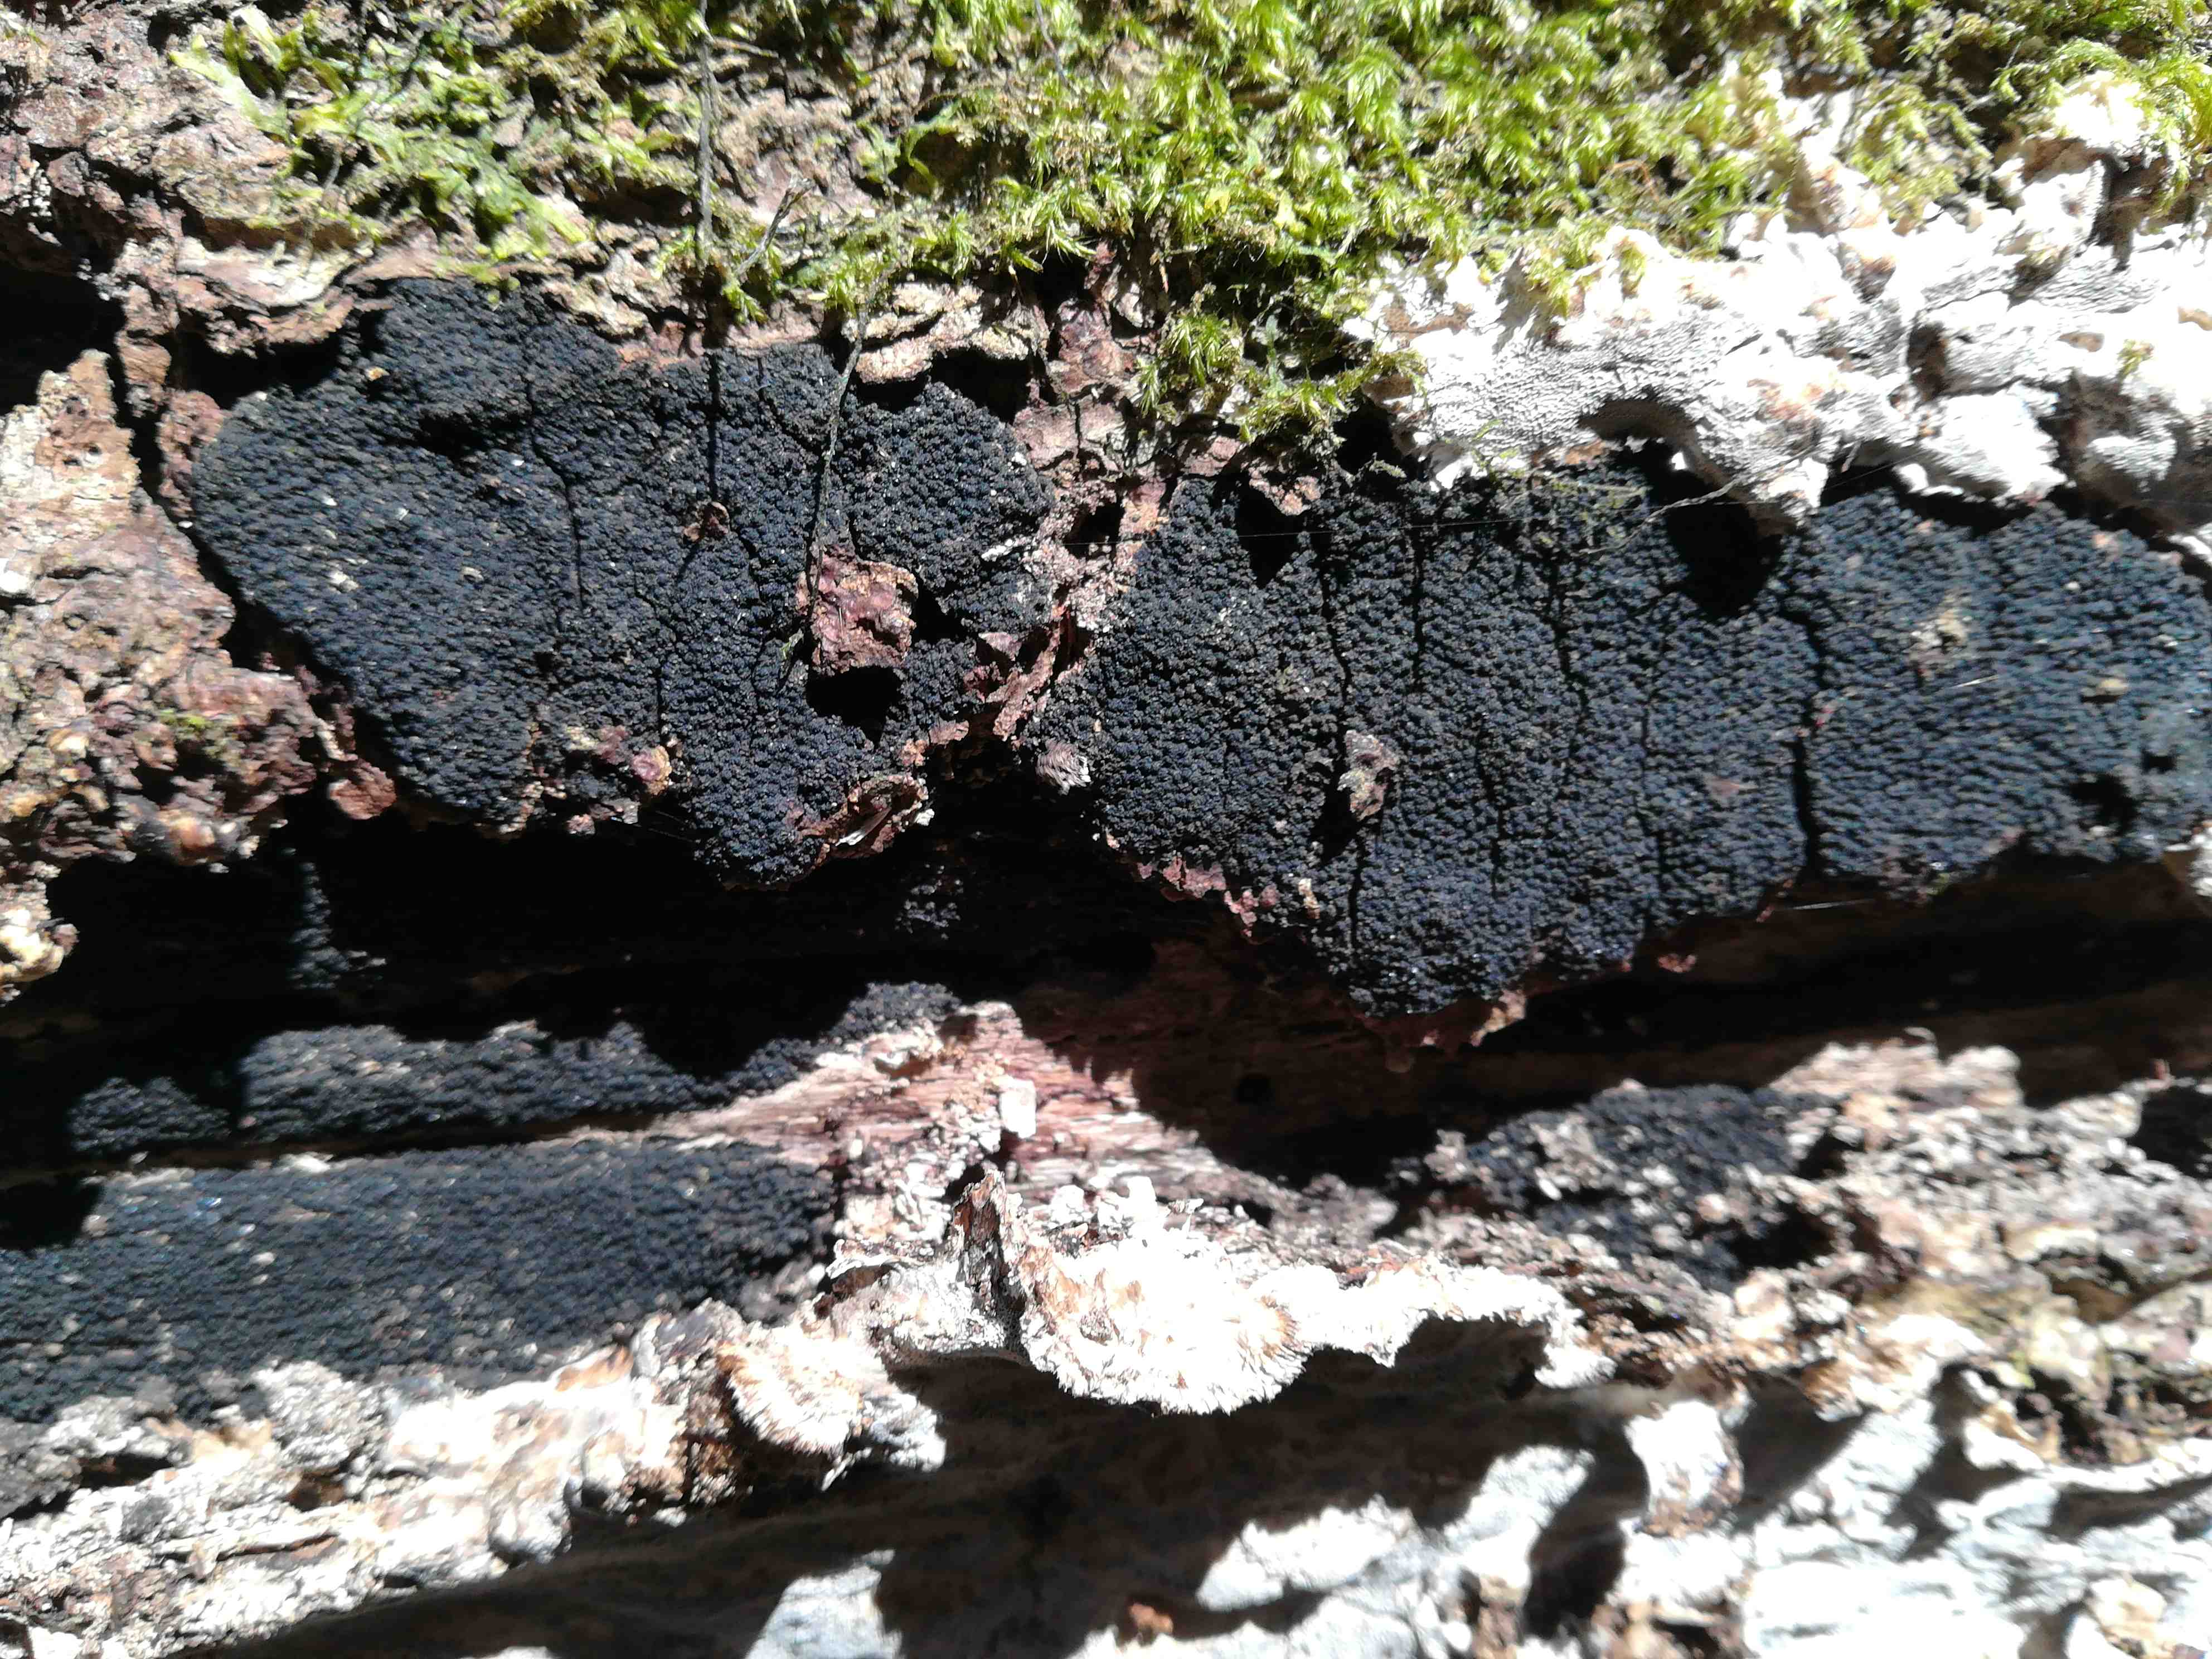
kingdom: Fungi
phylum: Ascomycota
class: Sordariomycetes
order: Xylariales
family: Diatrypaceae
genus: Eutypa
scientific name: Eutypa spinosa
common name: grov kulskorpe
